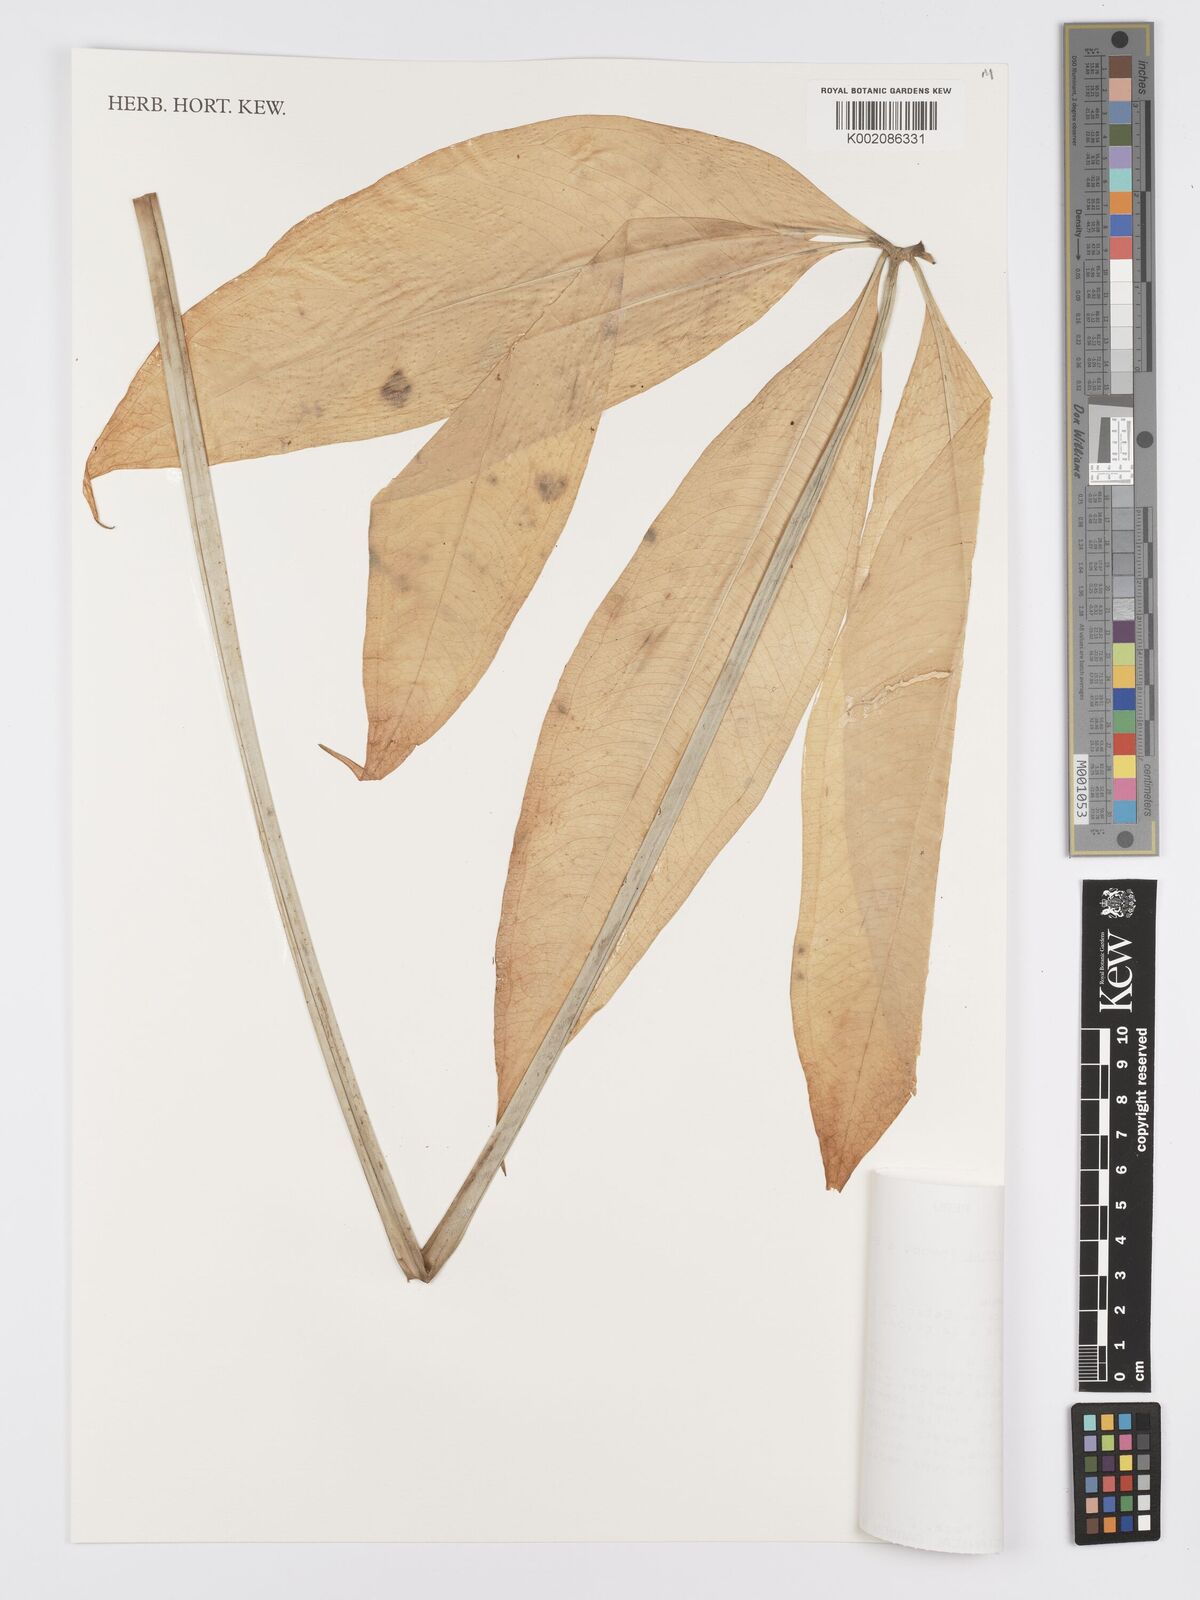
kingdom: Plantae
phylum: Tracheophyta
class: Liliopsida
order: Alismatales
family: Araceae
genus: Anthurium
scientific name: Anthurium kunthii
